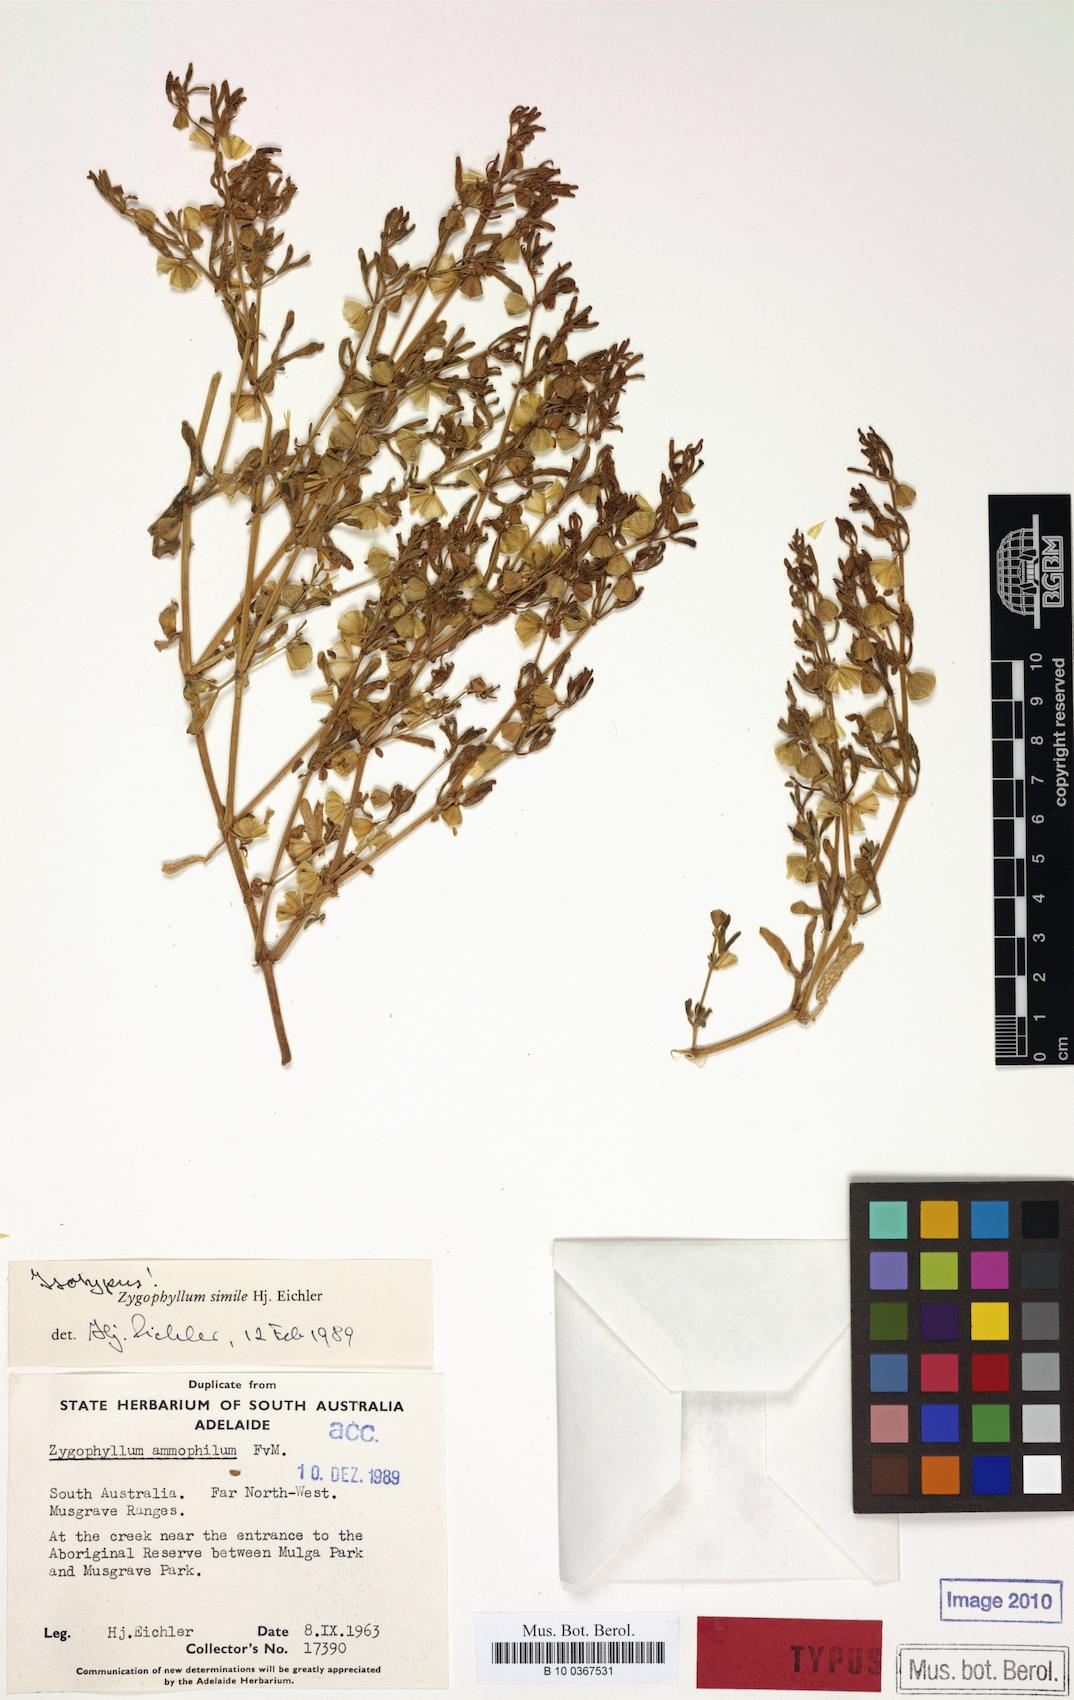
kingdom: Plantae
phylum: Tracheophyta
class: Magnoliopsida
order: Zygophyllales
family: Zygophyllaceae
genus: Roepera
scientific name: Roepera ammophila
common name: Sand twinleaf
